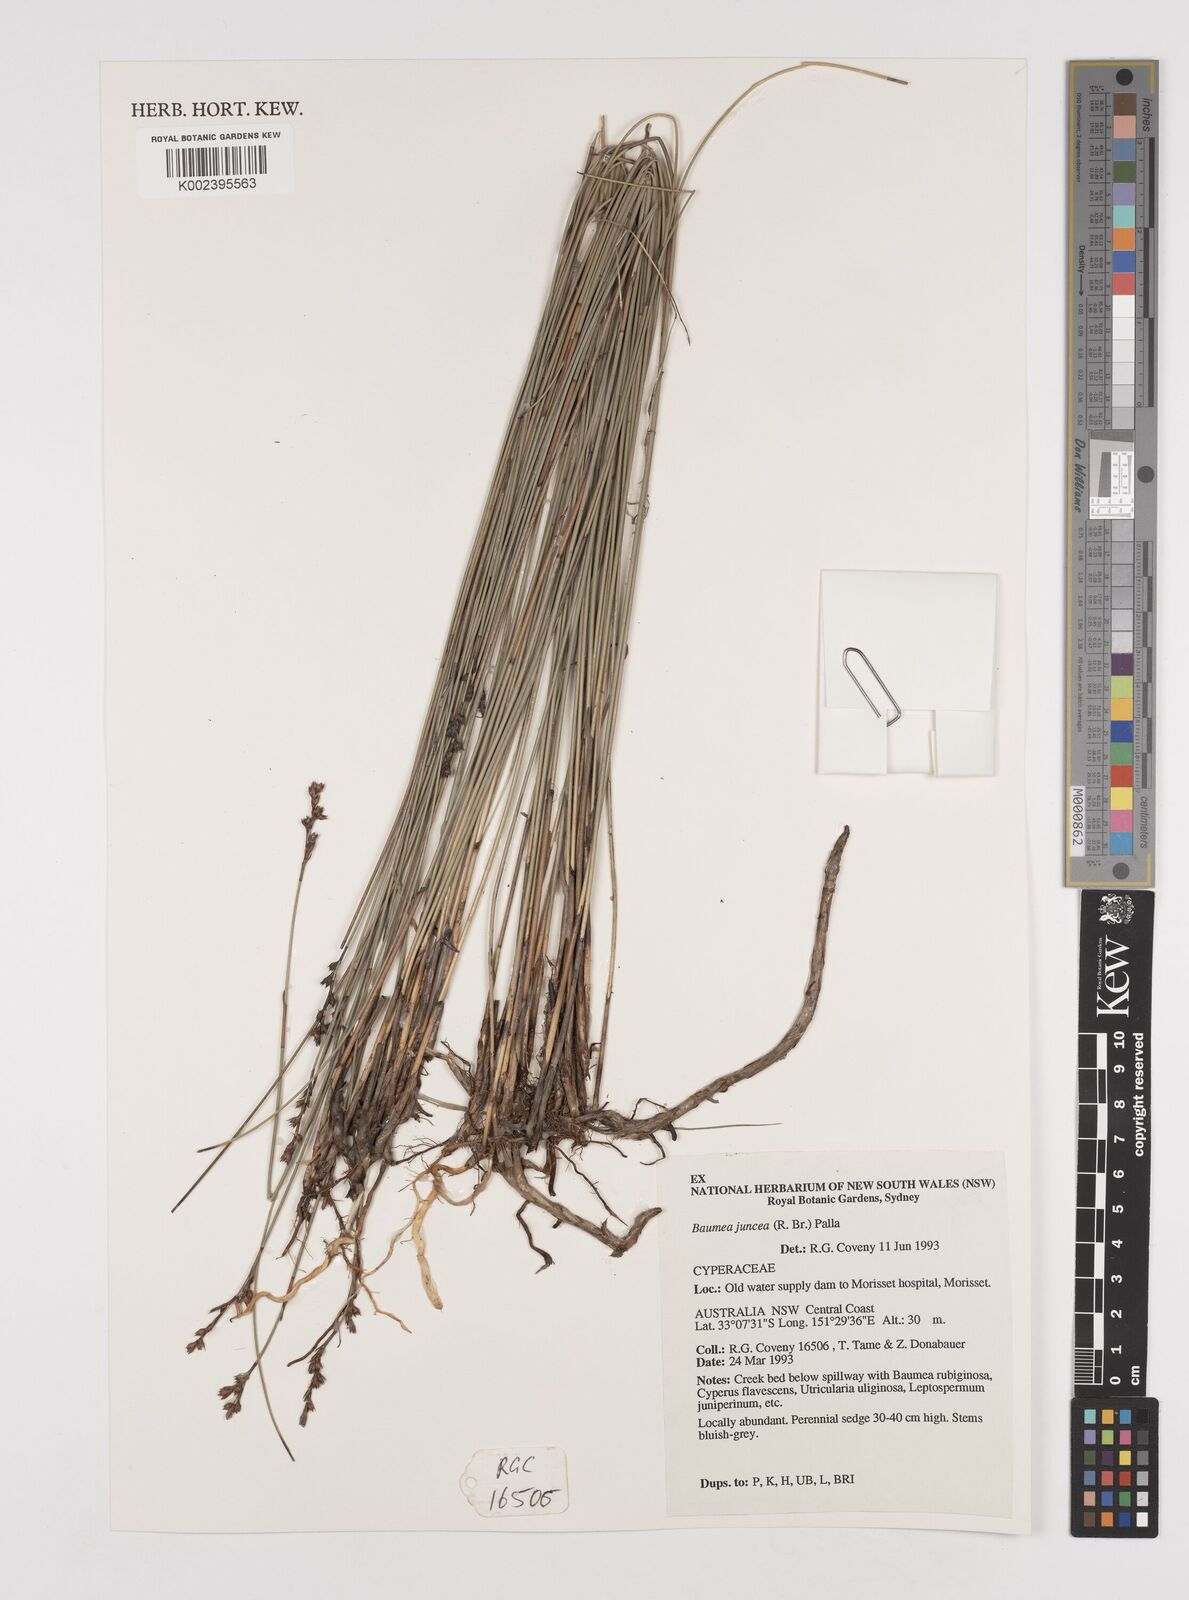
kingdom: Plantae
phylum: Tracheophyta
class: Liliopsida
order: Poales
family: Cyperaceae
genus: Machaerina
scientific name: Machaerina juncea
